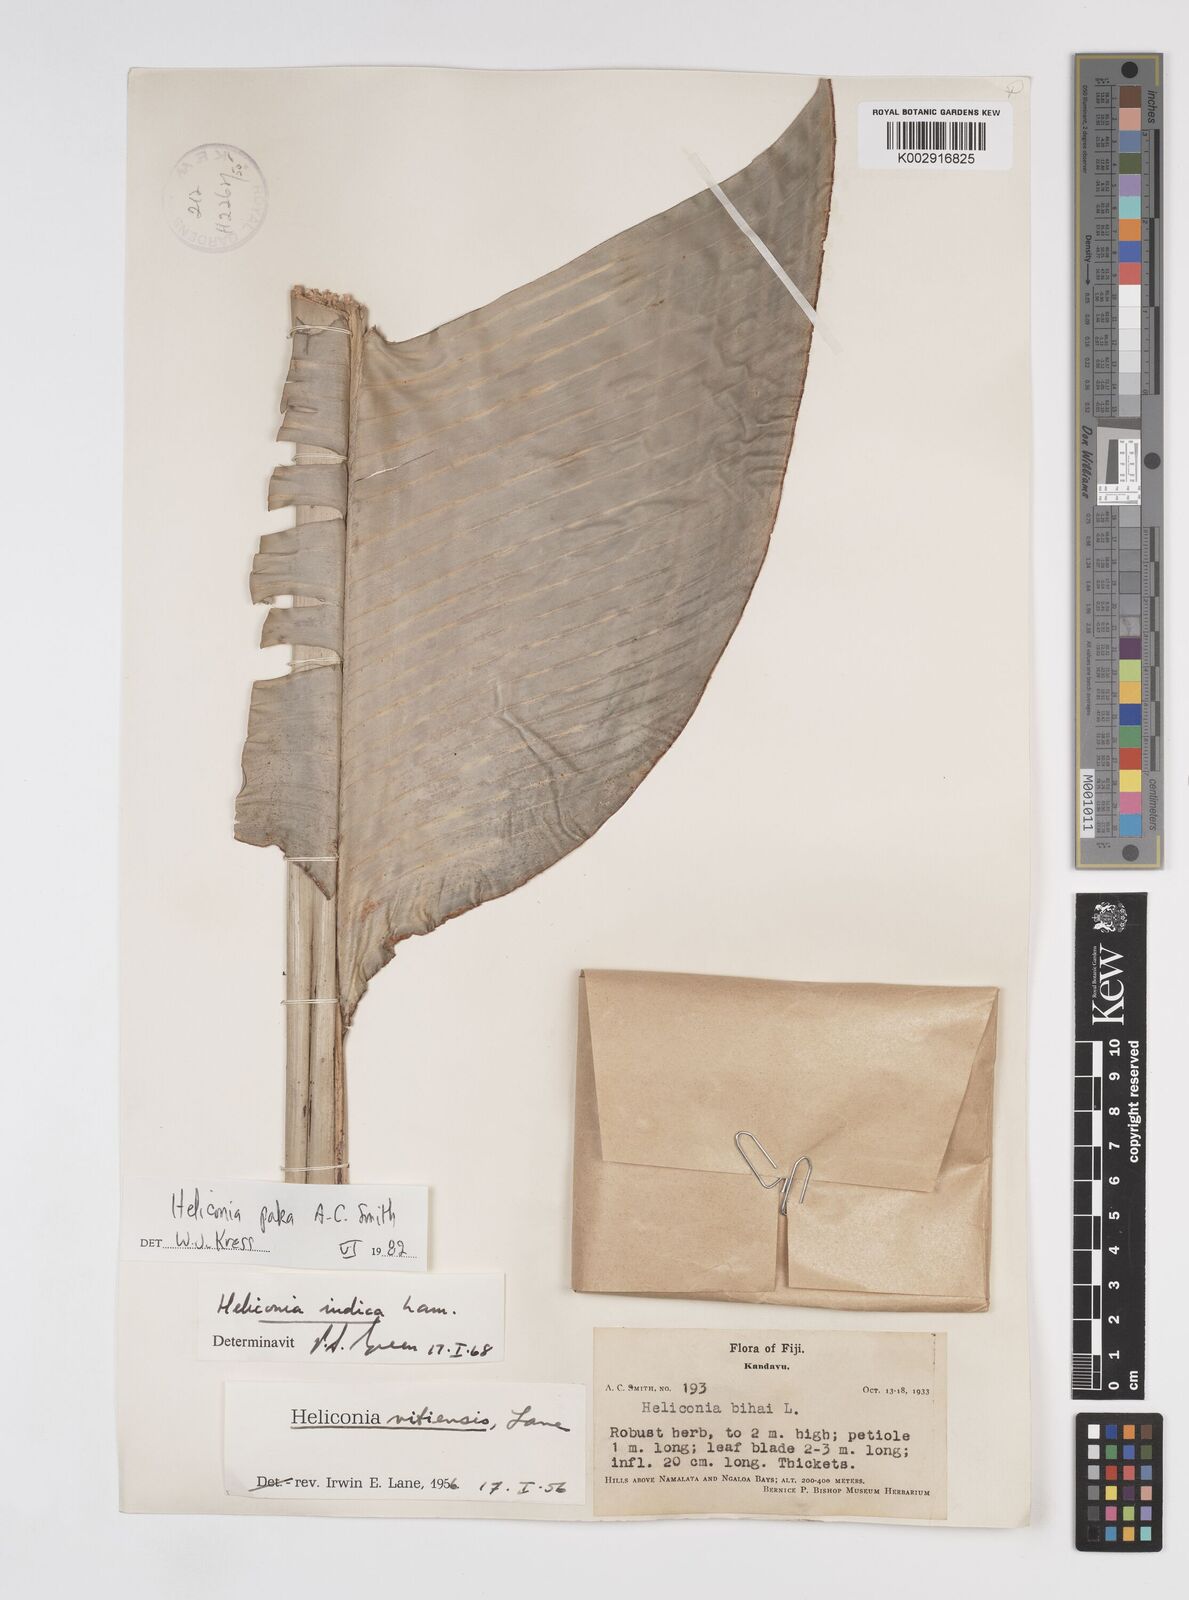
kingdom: Plantae
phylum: Tracheophyta
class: Liliopsida
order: Zingiberales
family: Heliconiaceae
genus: Heliconia
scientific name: Heliconia paka
